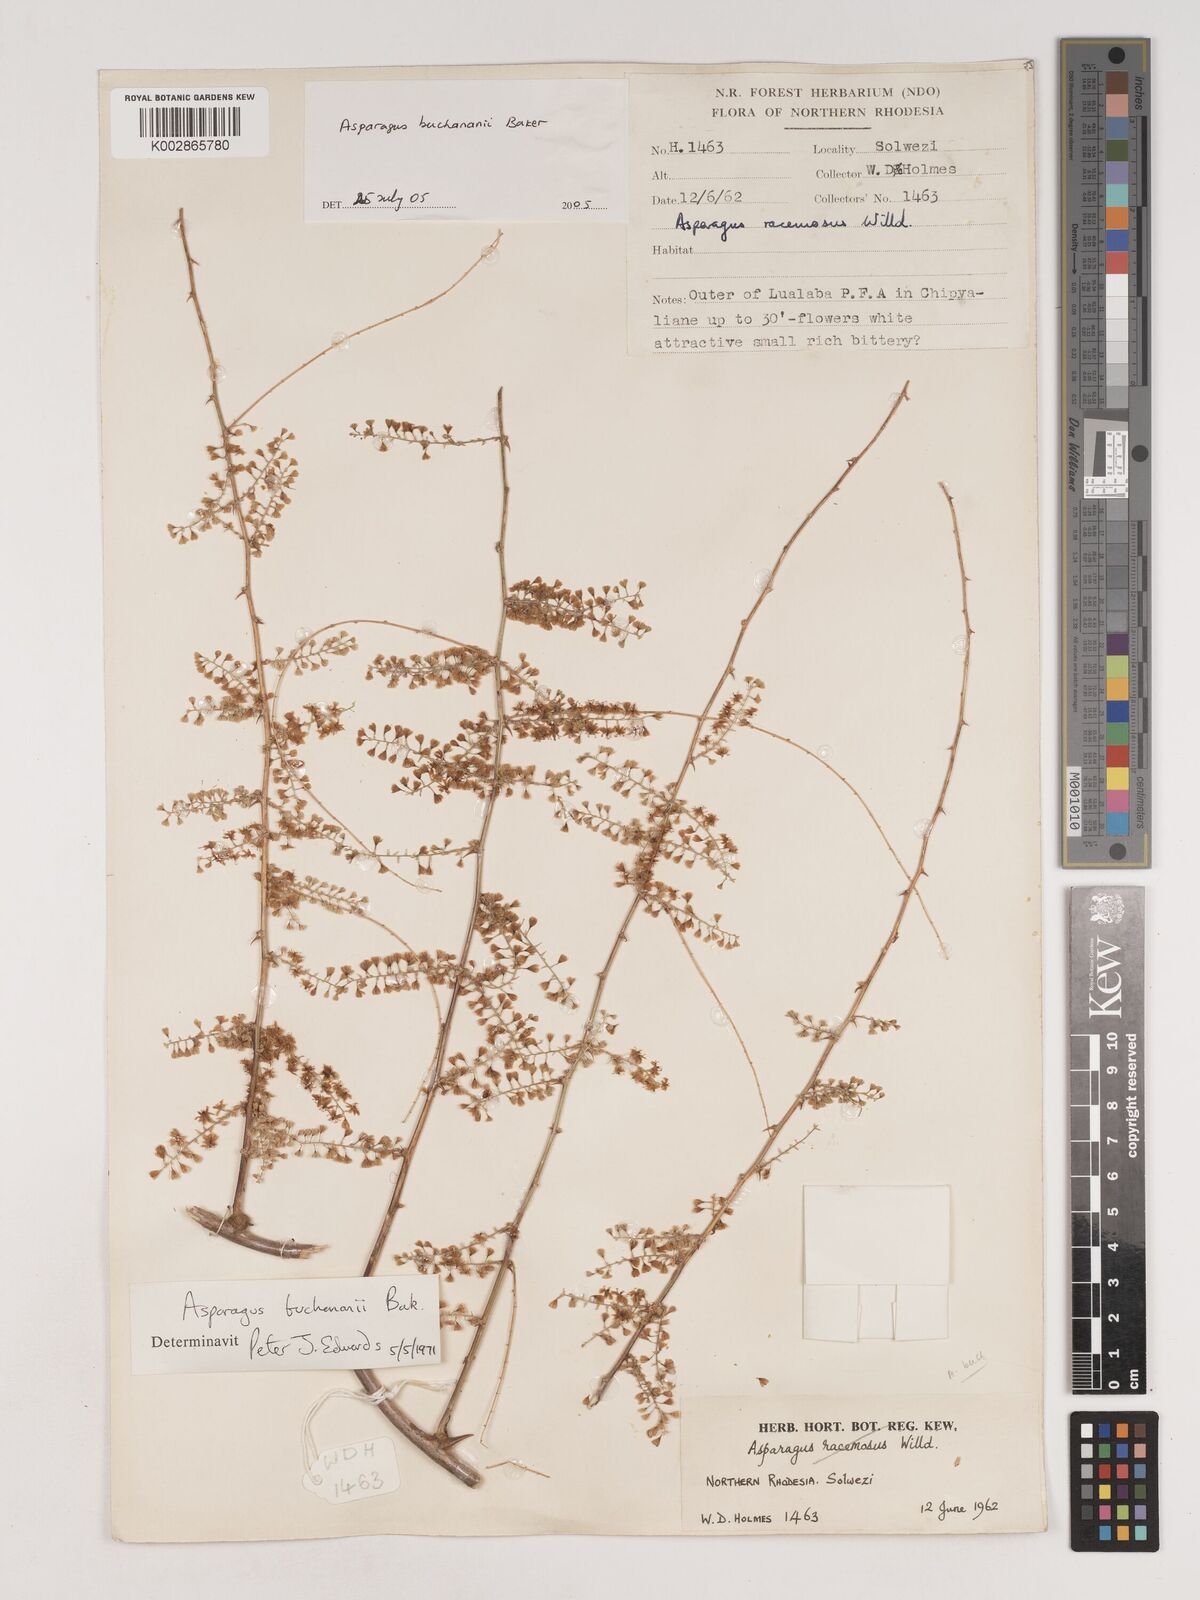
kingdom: Plantae
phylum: Tracheophyta
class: Liliopsida
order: Asparagales
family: Asparagaceae
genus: Asparagus
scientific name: Asparagus buchananii
